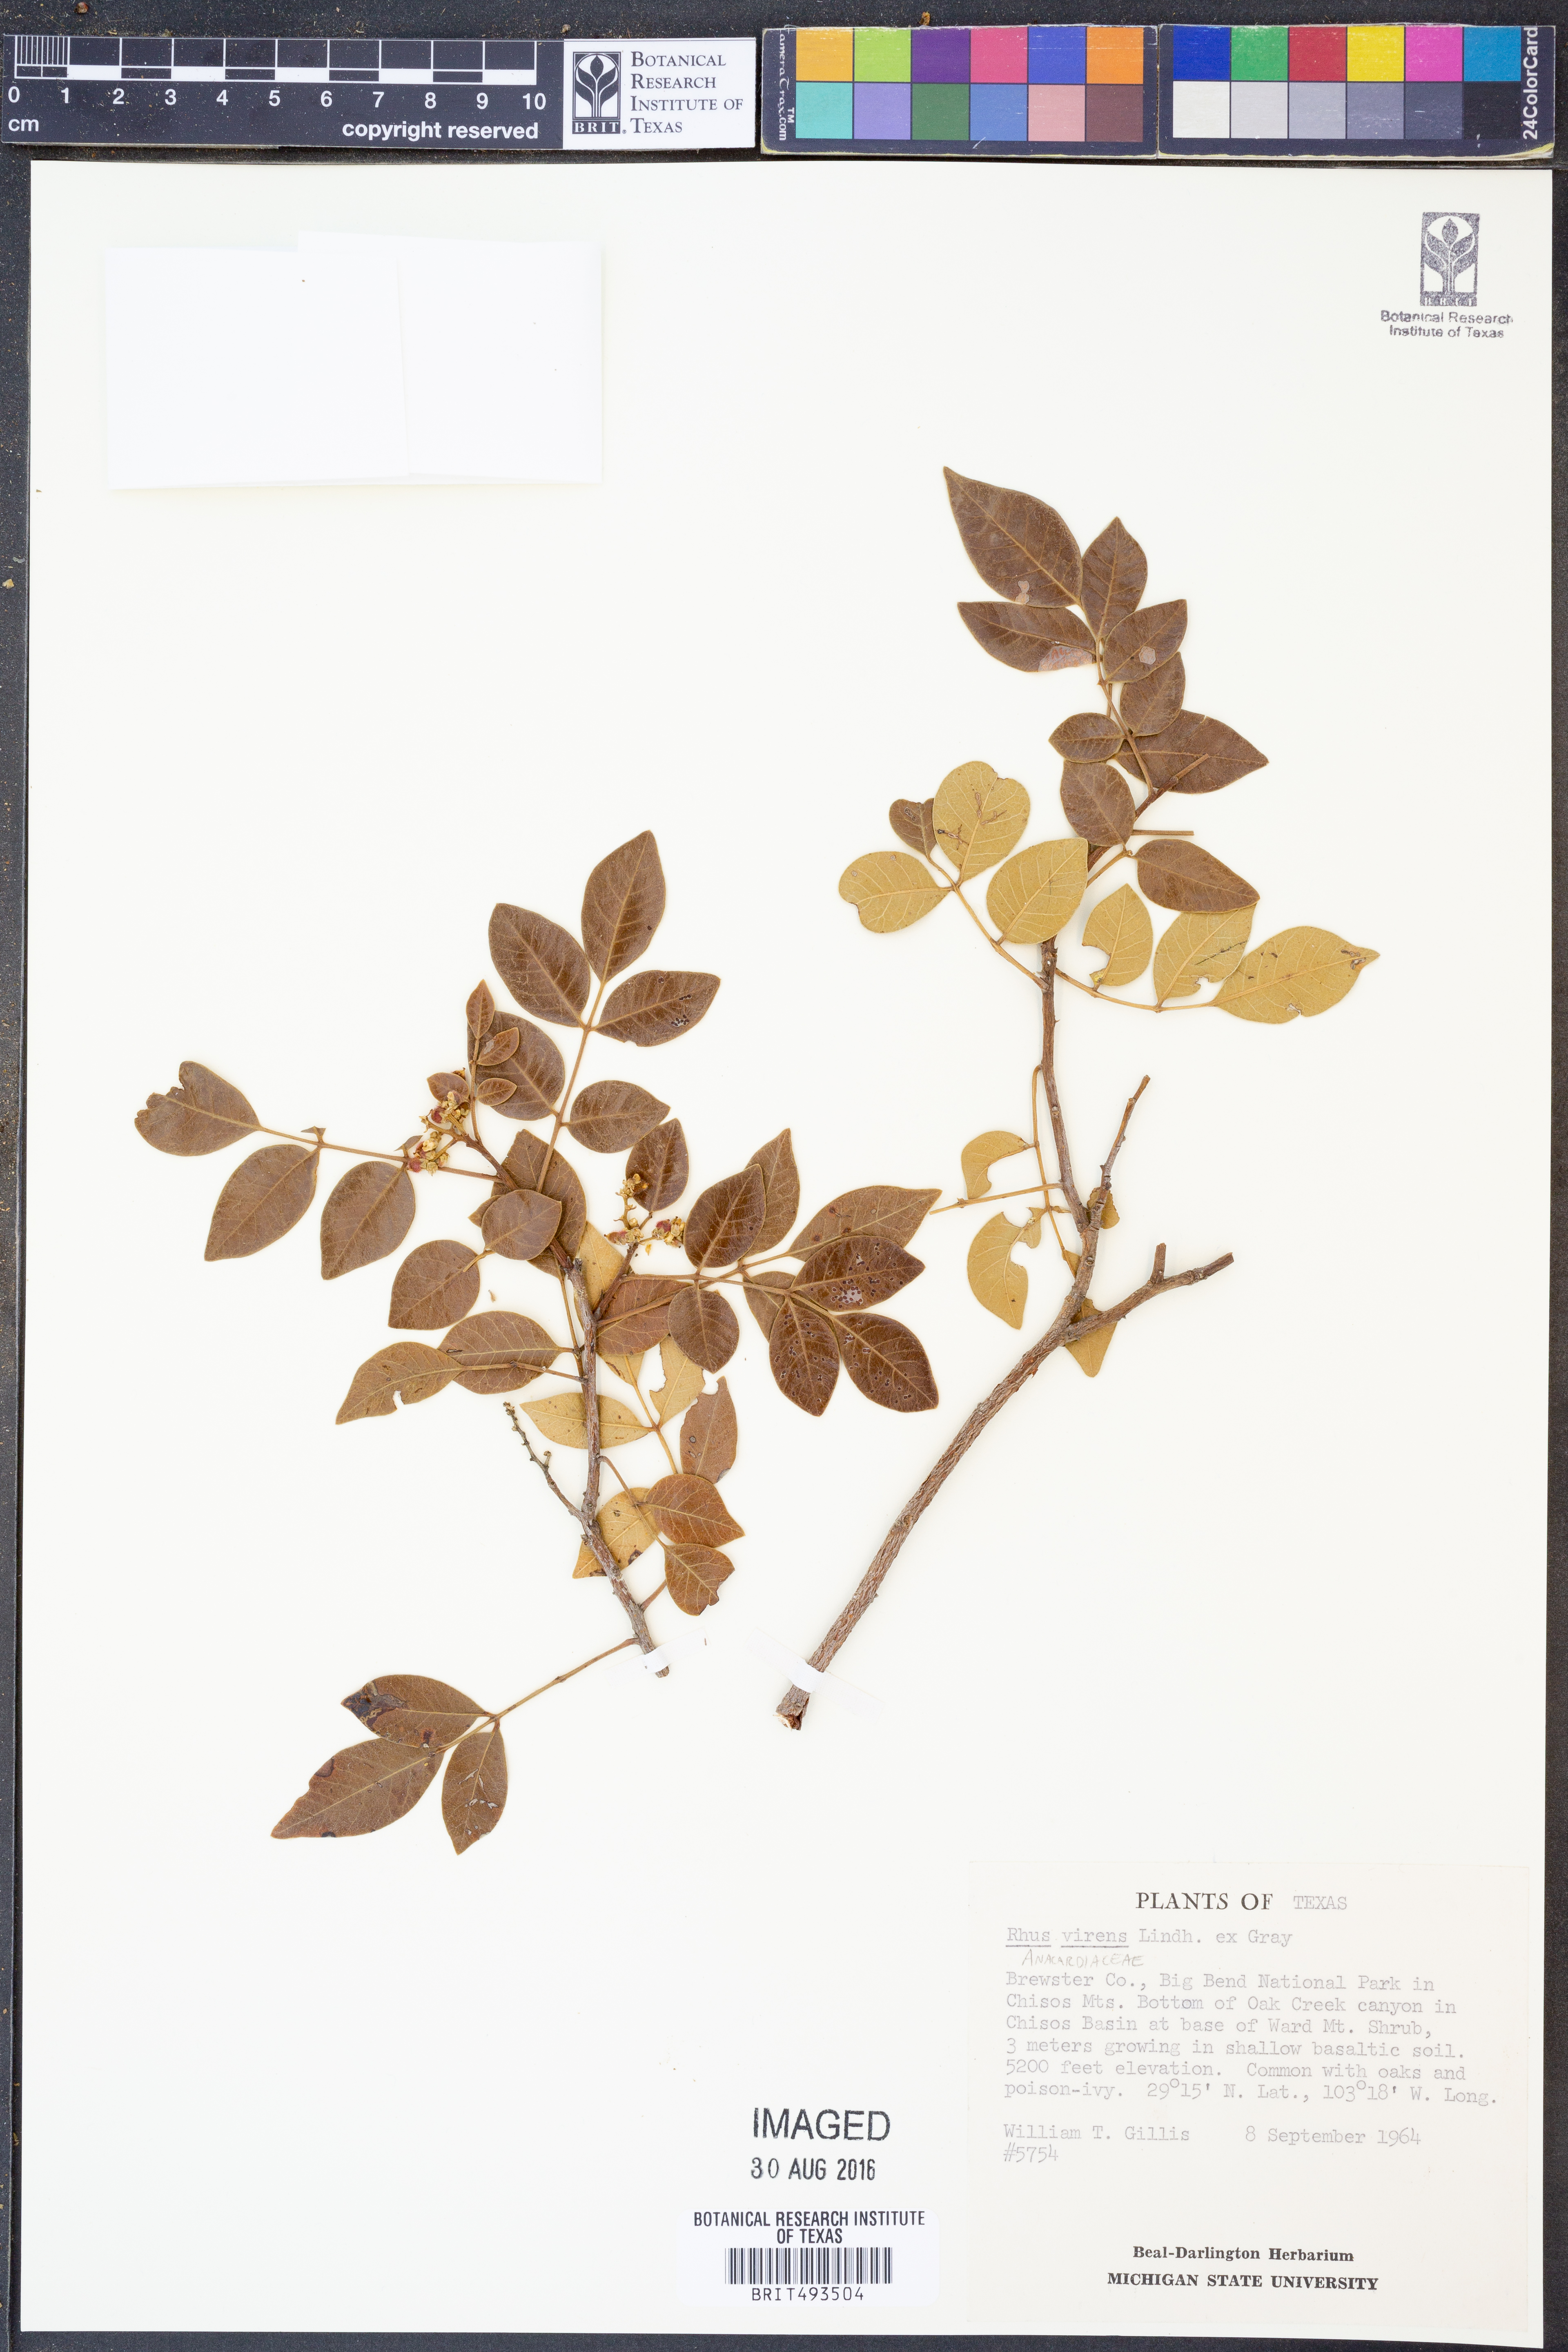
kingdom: Plantae
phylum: Tracheophyta
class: Magnoliopsida
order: Sapindales
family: Anacardiaceae
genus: Rhus
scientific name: Rhus virens
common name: Evergreen sumac
